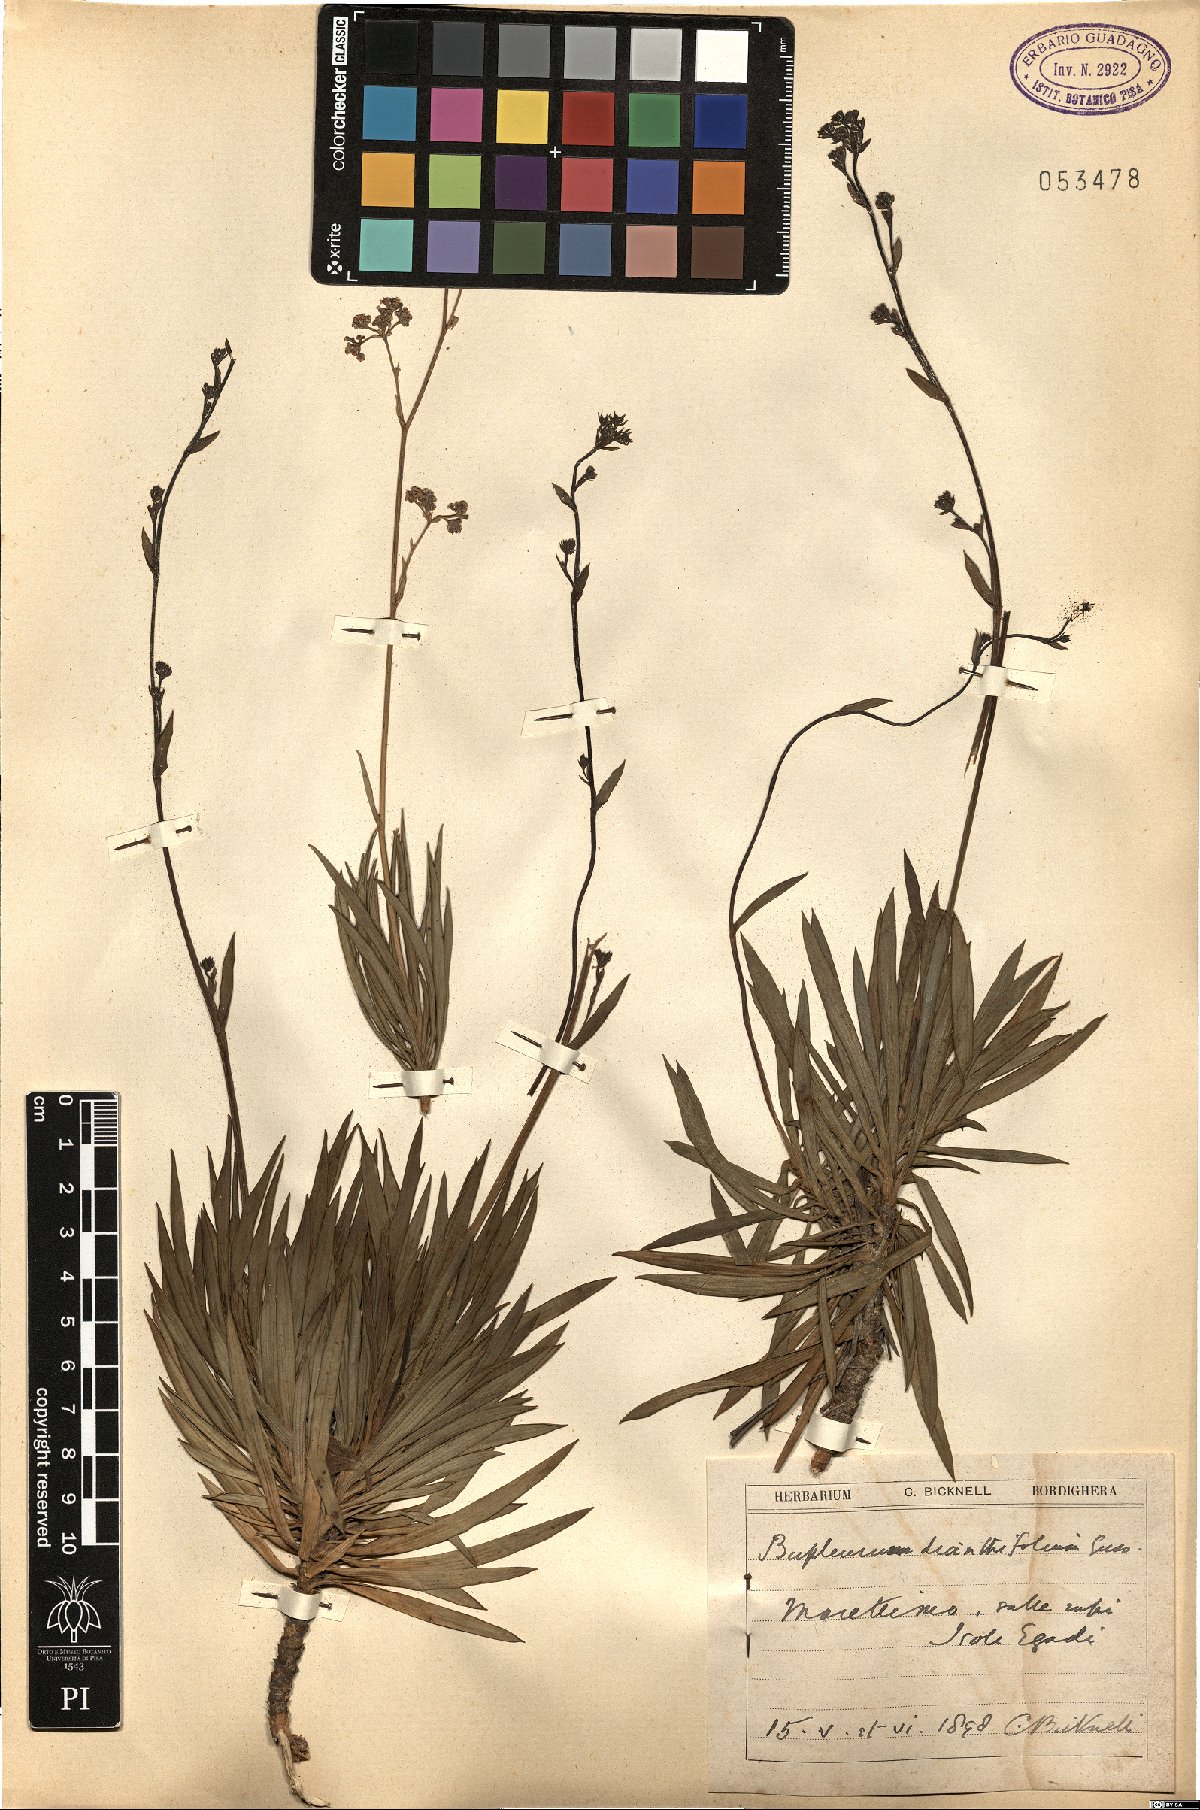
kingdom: Plantae
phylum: Tracheophyta
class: Magnoliopsida
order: Apiales
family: Apiaceae
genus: Bupleurum
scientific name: Bupleurum dianthifolium
